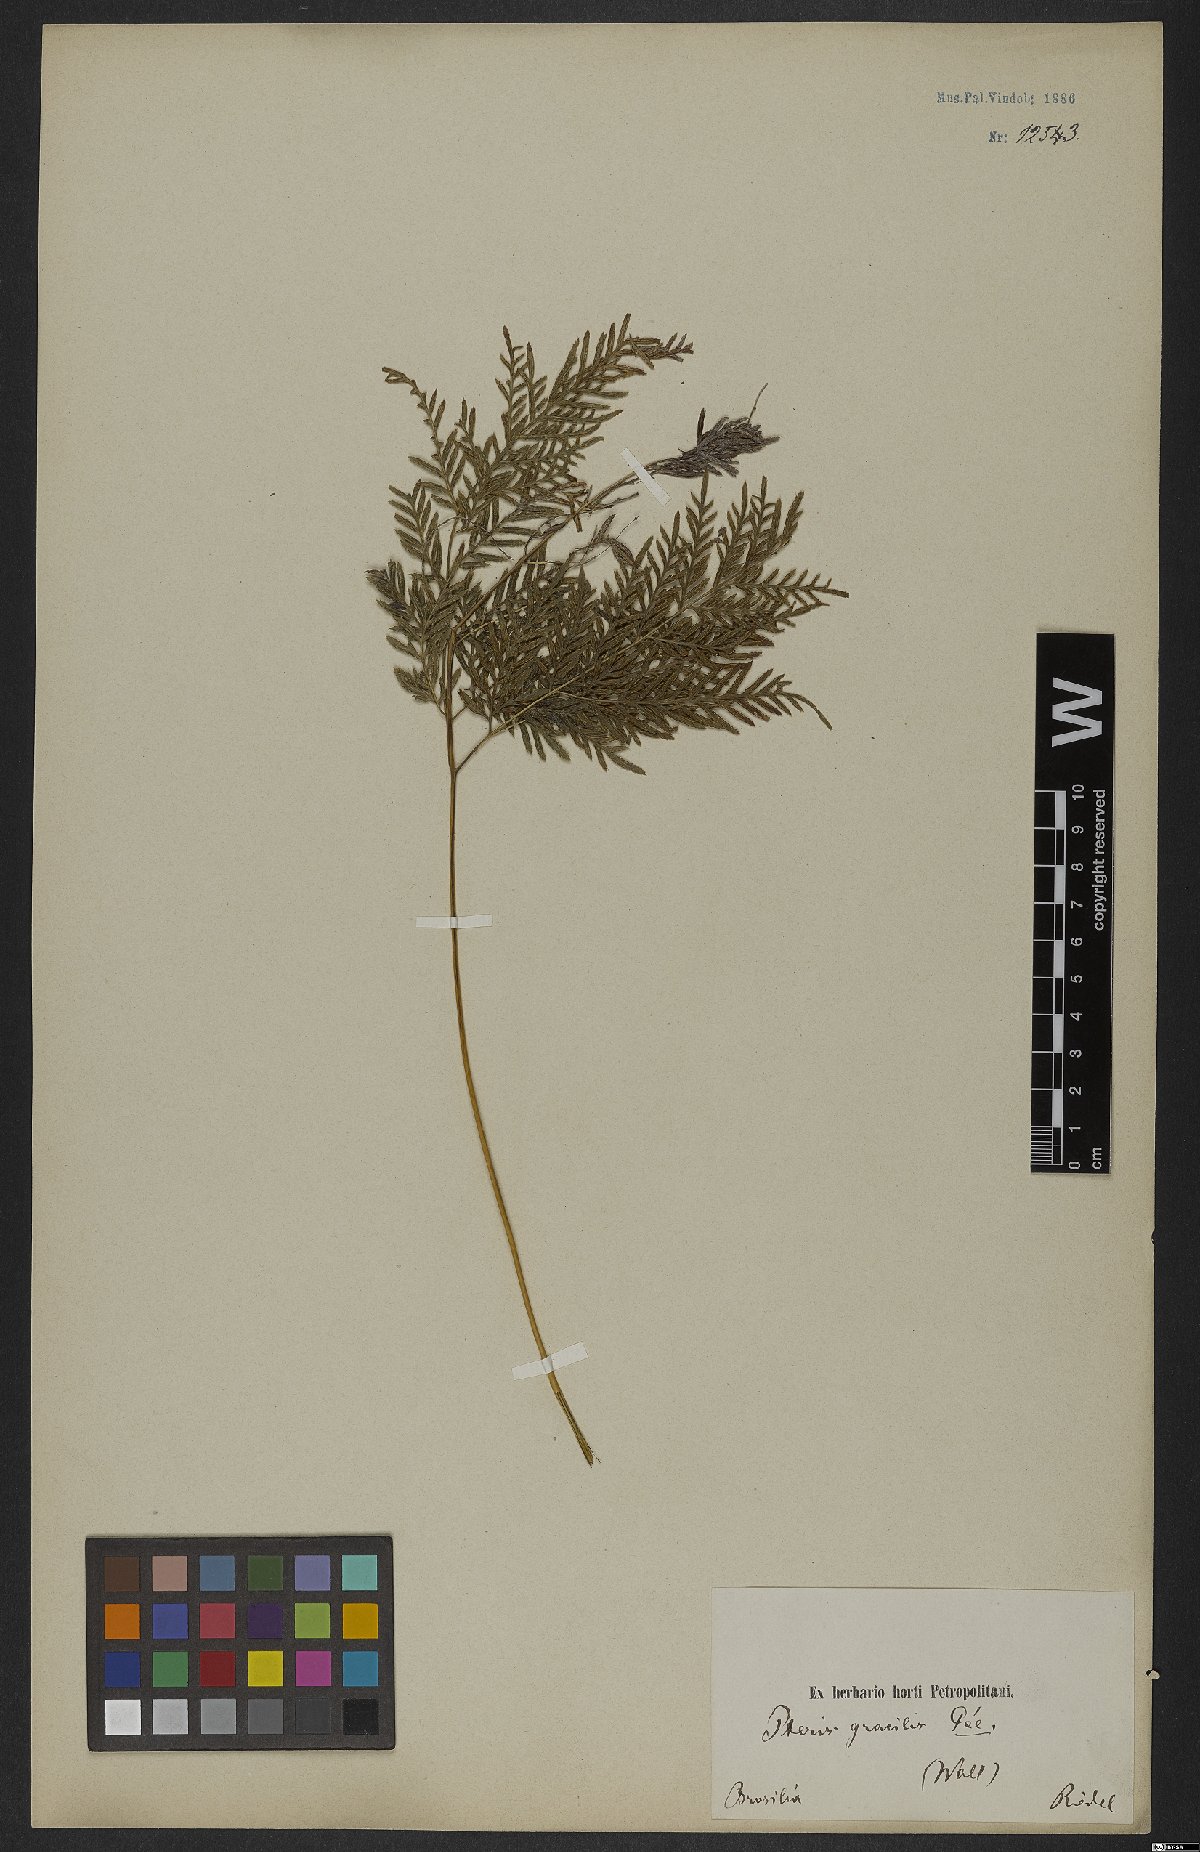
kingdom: Plantae
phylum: Tracheophyta
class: Polypodiopsida
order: Polypodiales
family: Pteridaceae
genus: Pteris
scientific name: Pteris leptophylla
